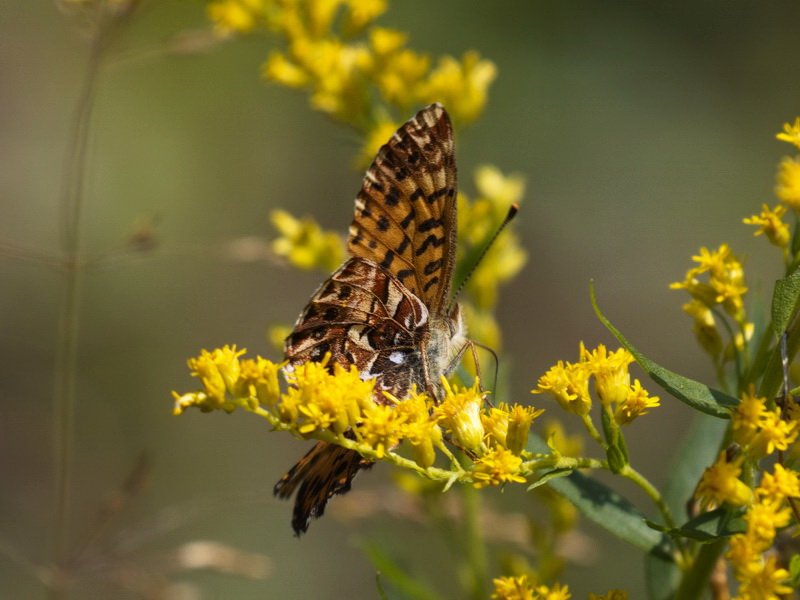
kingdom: Animalia
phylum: Arthropoda
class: Insecta
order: Lepidoptera
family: Nymphalidae
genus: Boloria
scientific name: Boloria chariclea
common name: Arctic Fritillary
